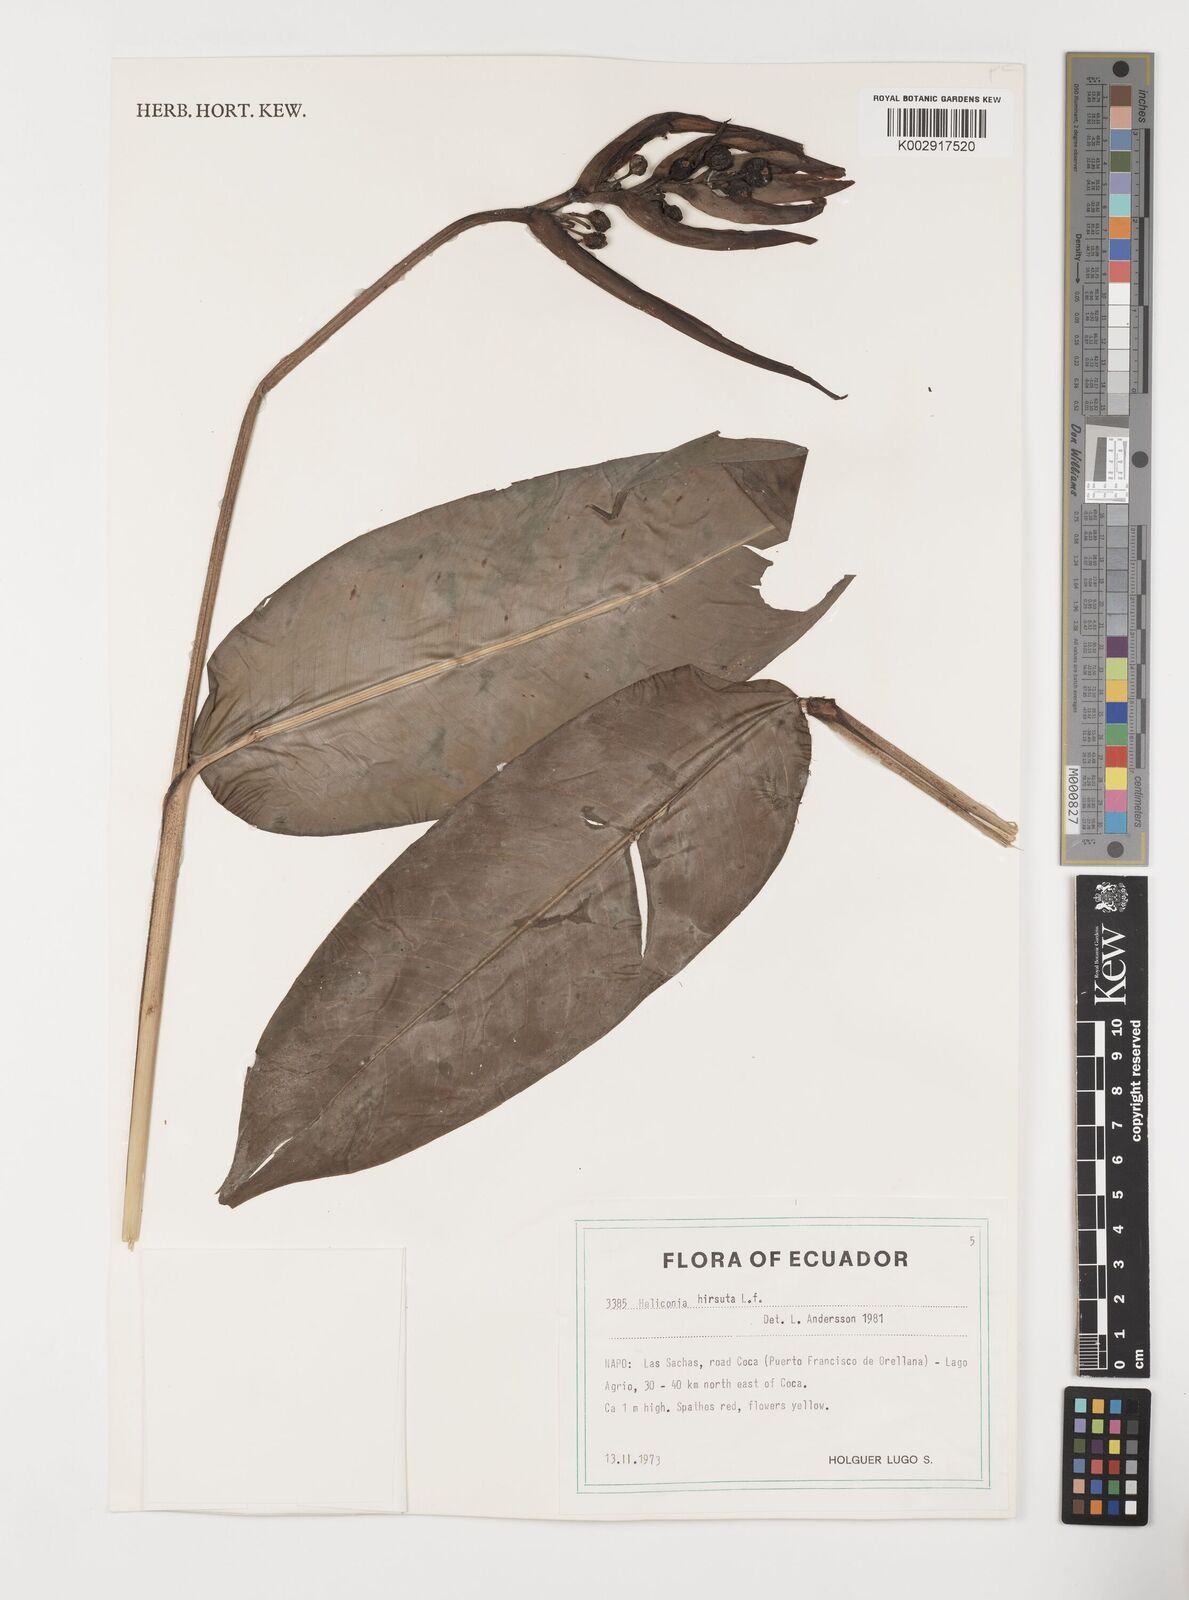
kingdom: Plantae
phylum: Tracheophyta
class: Liliopsida
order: Zingiberales
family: Heliconiaceae
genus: Heliconia
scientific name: Heliconia hirsuta
